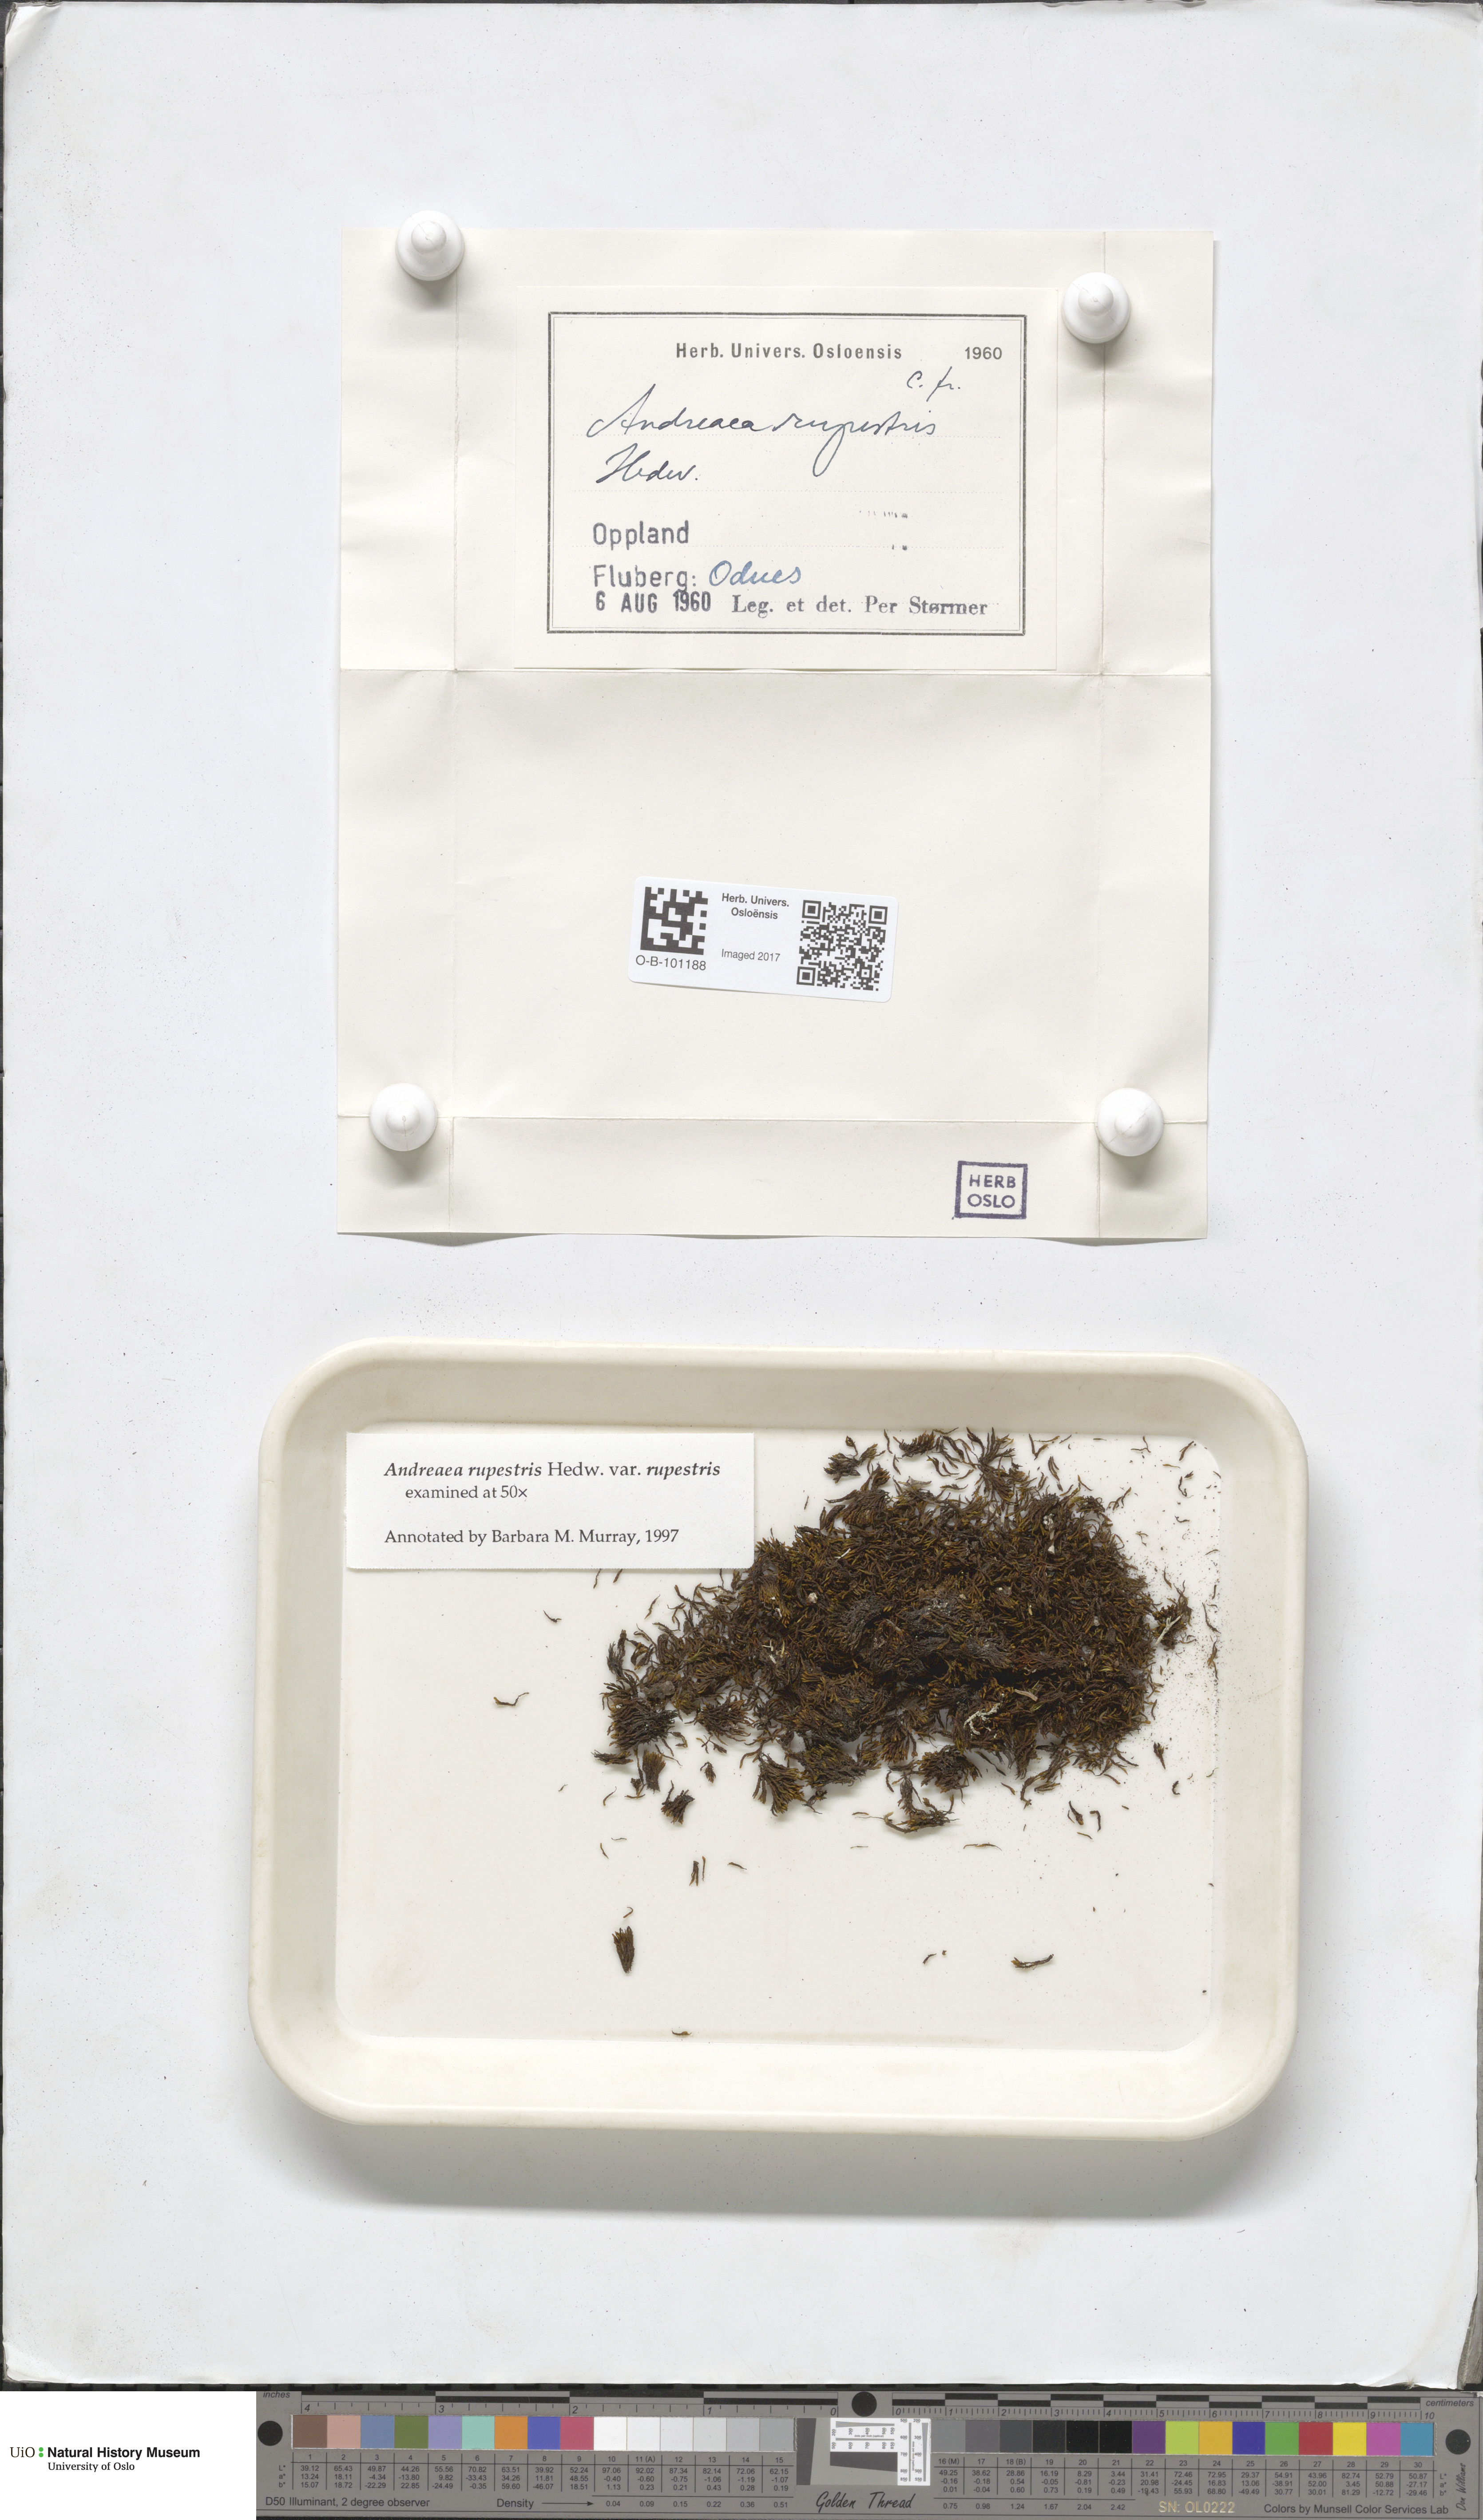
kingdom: Plantae
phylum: Bryophyta
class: Andreaeopsida
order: Andreaeales
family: Andreaeaceae
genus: Andreaea
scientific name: Andreaea rupestris
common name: Black rock moss
